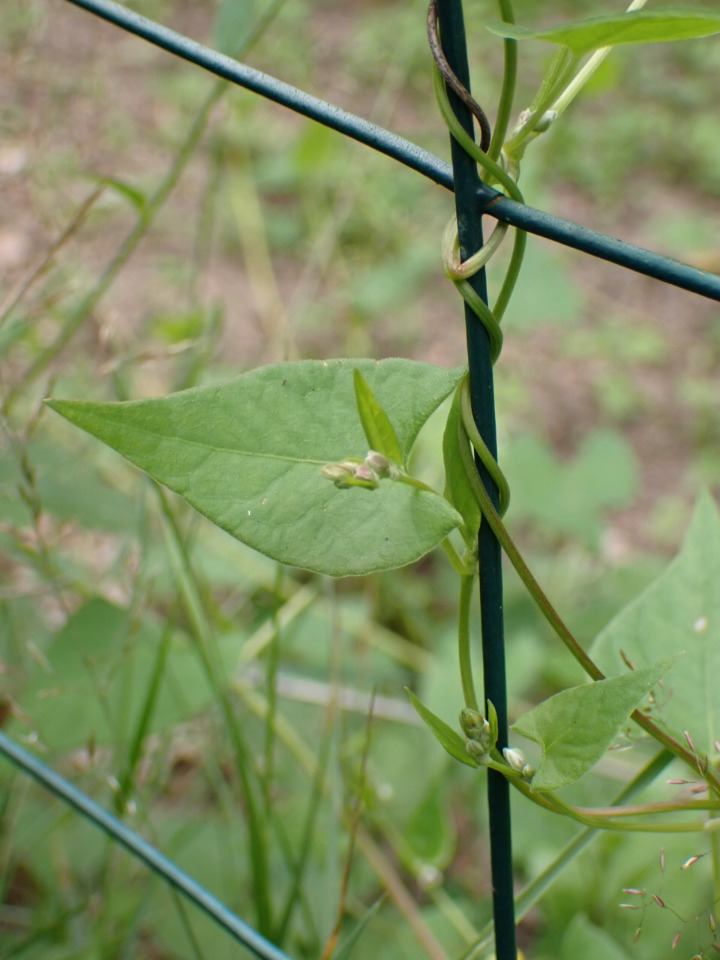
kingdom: Plantae
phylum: Tracheophyta
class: Magnoliopsida
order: Caryophyllales
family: Polygonaceae
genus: Fallopia
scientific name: Fallopia convolvulus
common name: Snerle-pileurt
